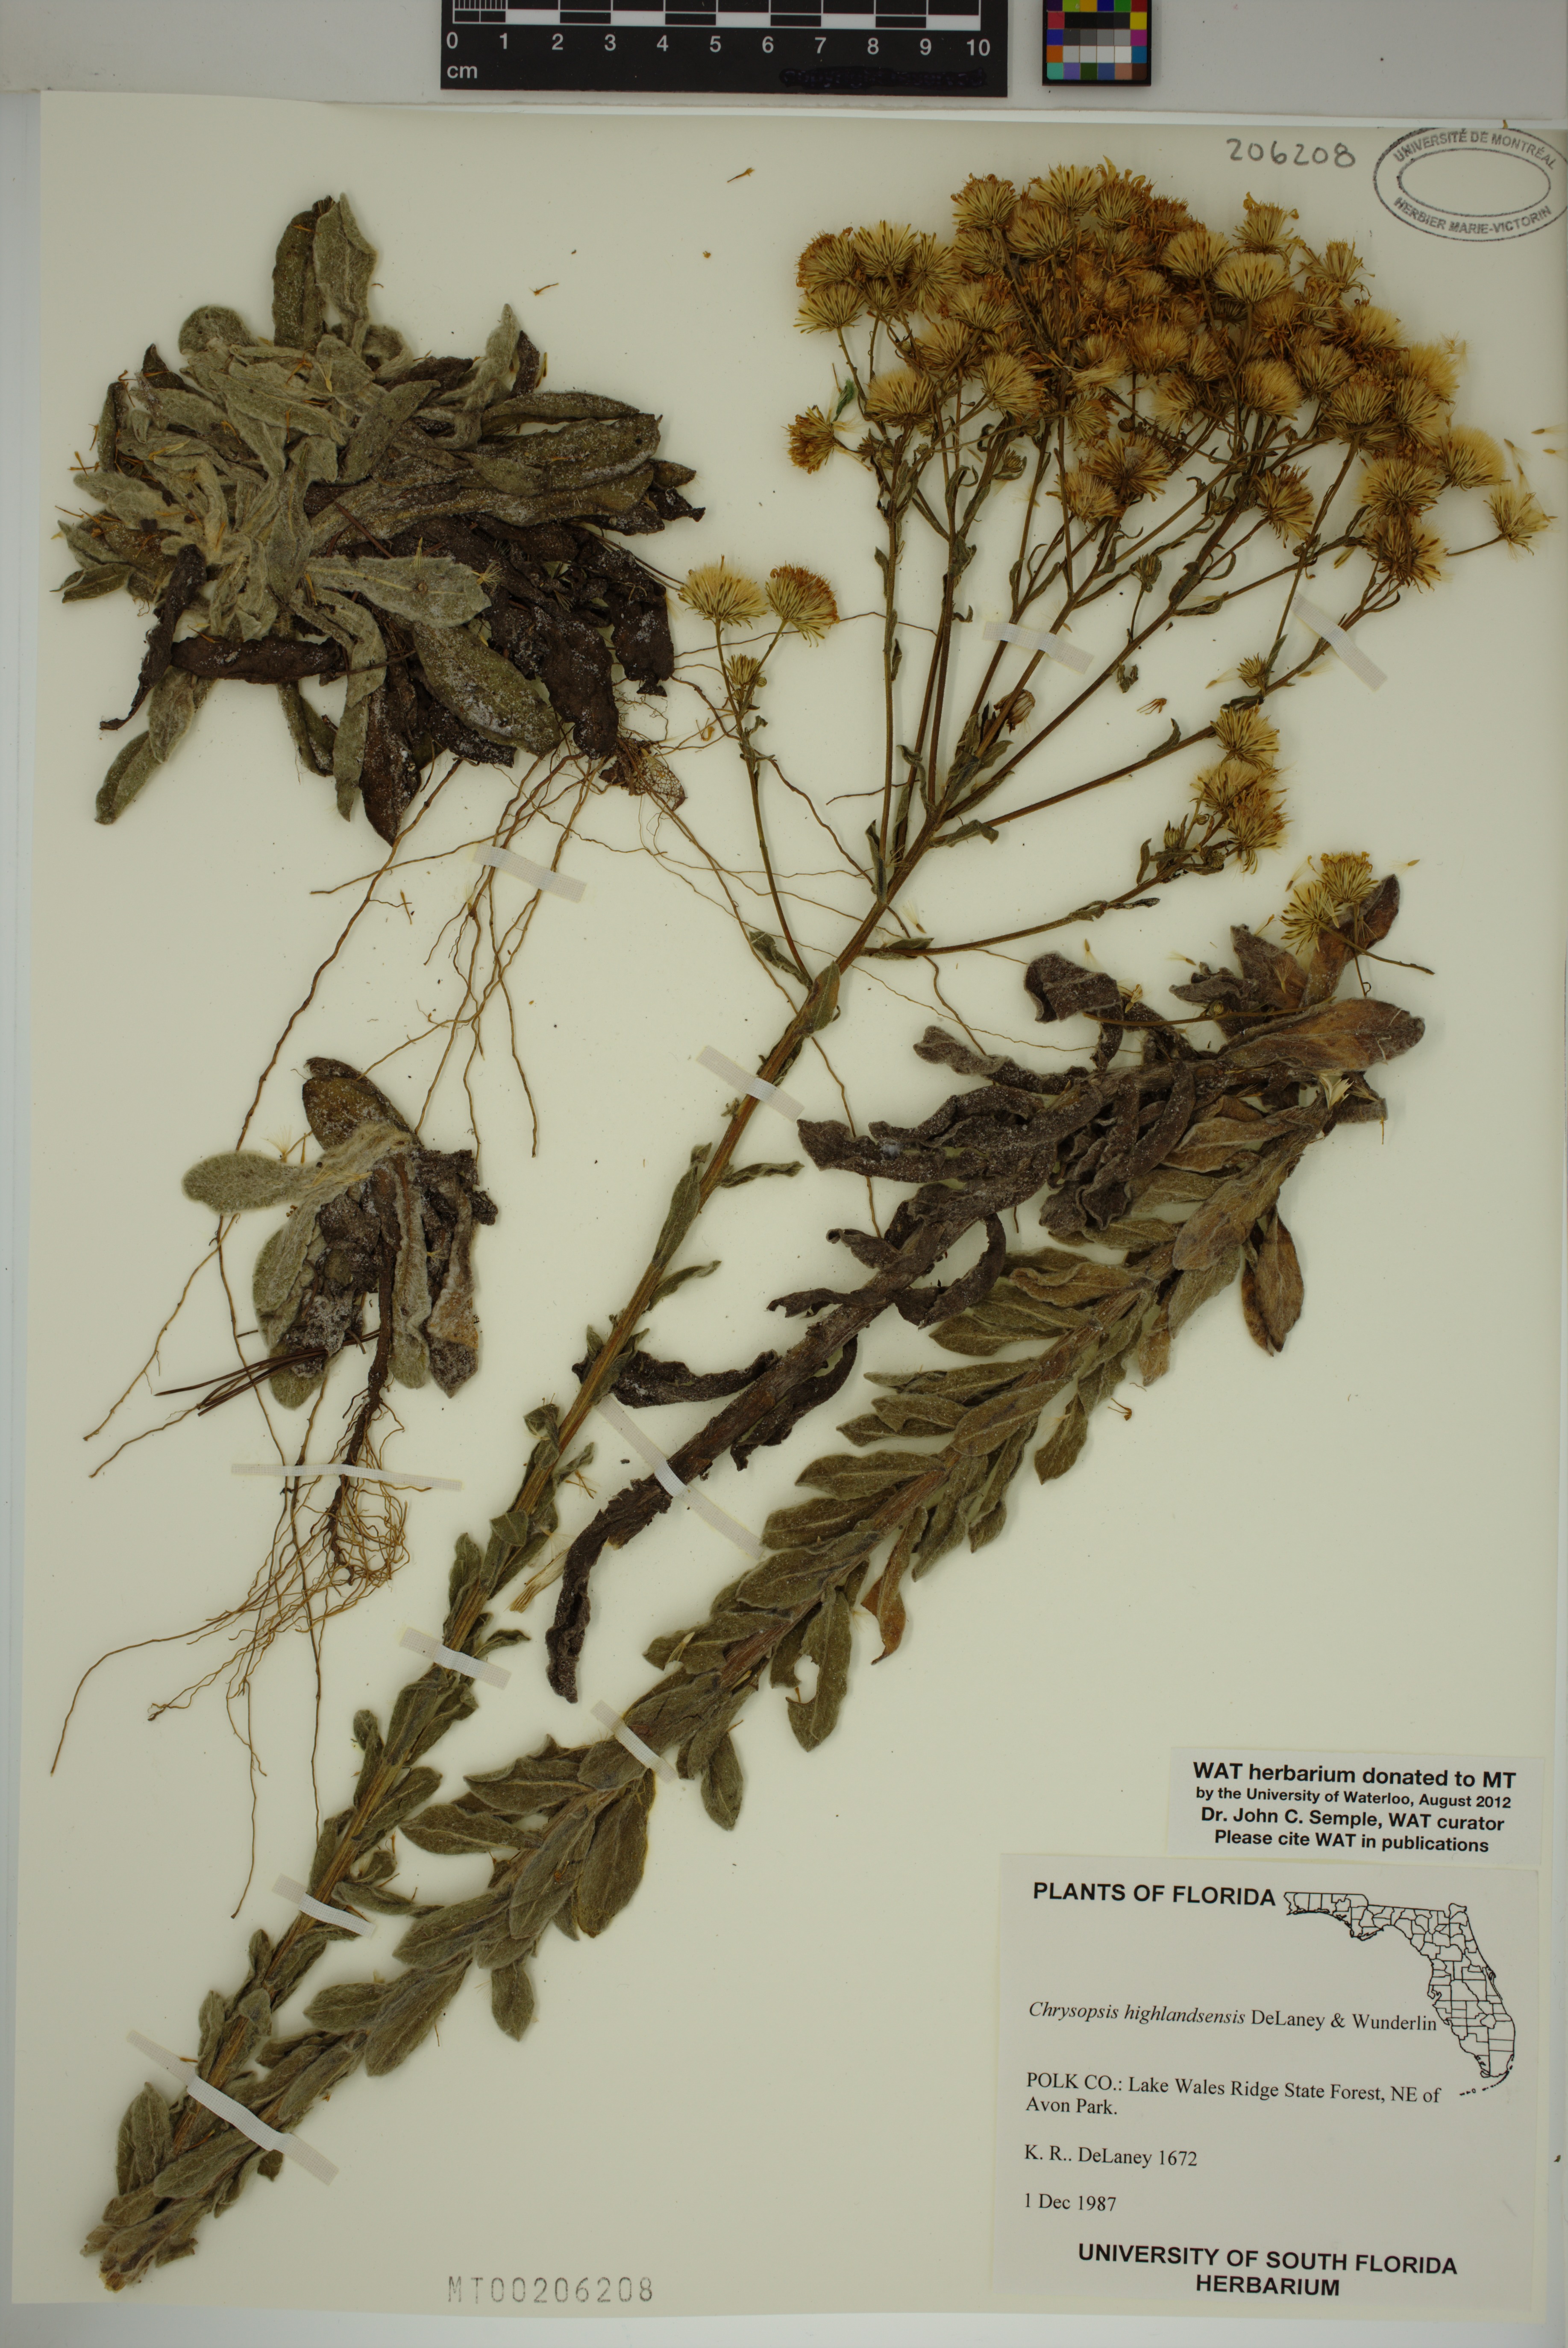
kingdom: Plantae
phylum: Tracheophyta
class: Magnoliopsida
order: Asterales
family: Asteraceae
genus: Chrysopsis
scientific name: Chrysopsis floridana
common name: Florida golden-aster
